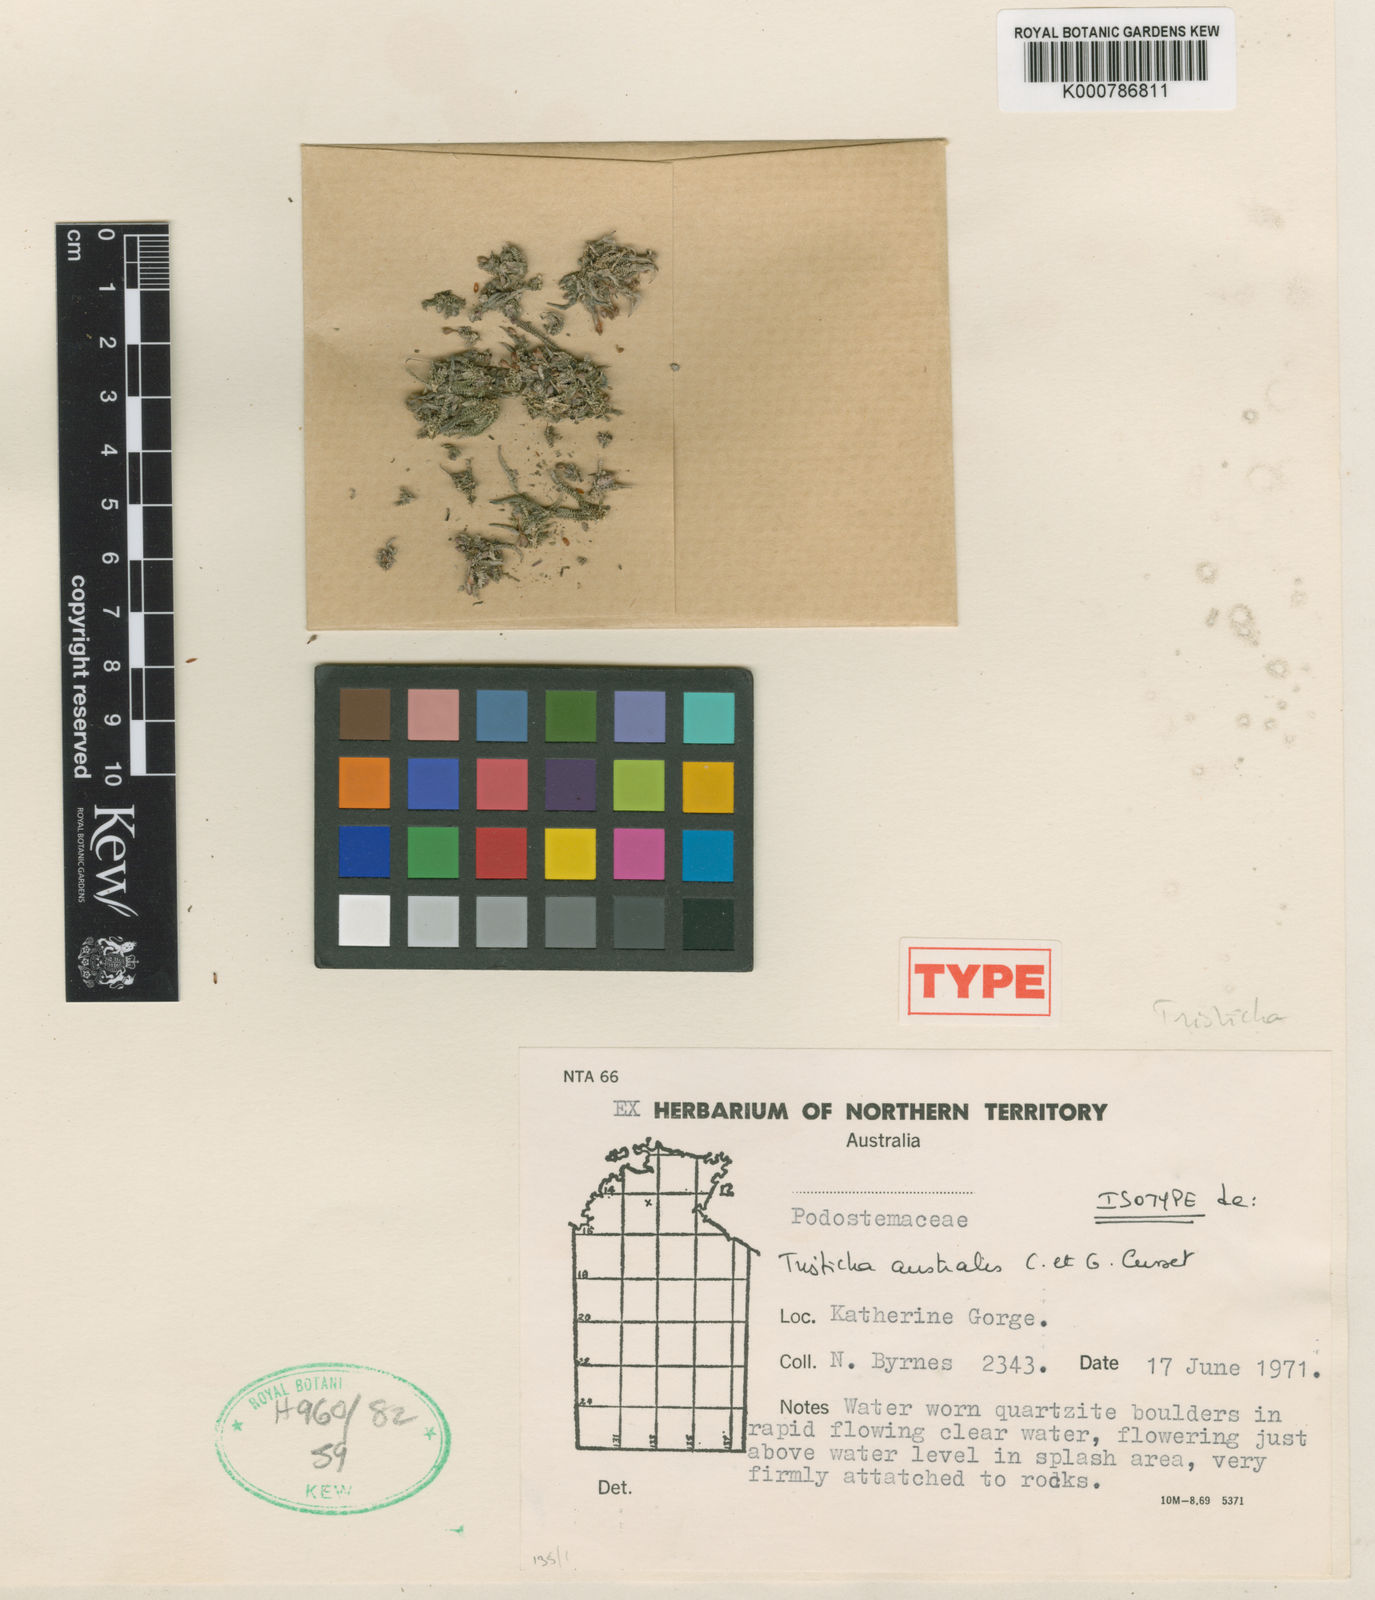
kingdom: Plantae
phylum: Tracheophyta
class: Magnoliopsida
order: Malpighiales
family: Podostemaceae
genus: Tristicha
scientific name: Tristicha trifaria
